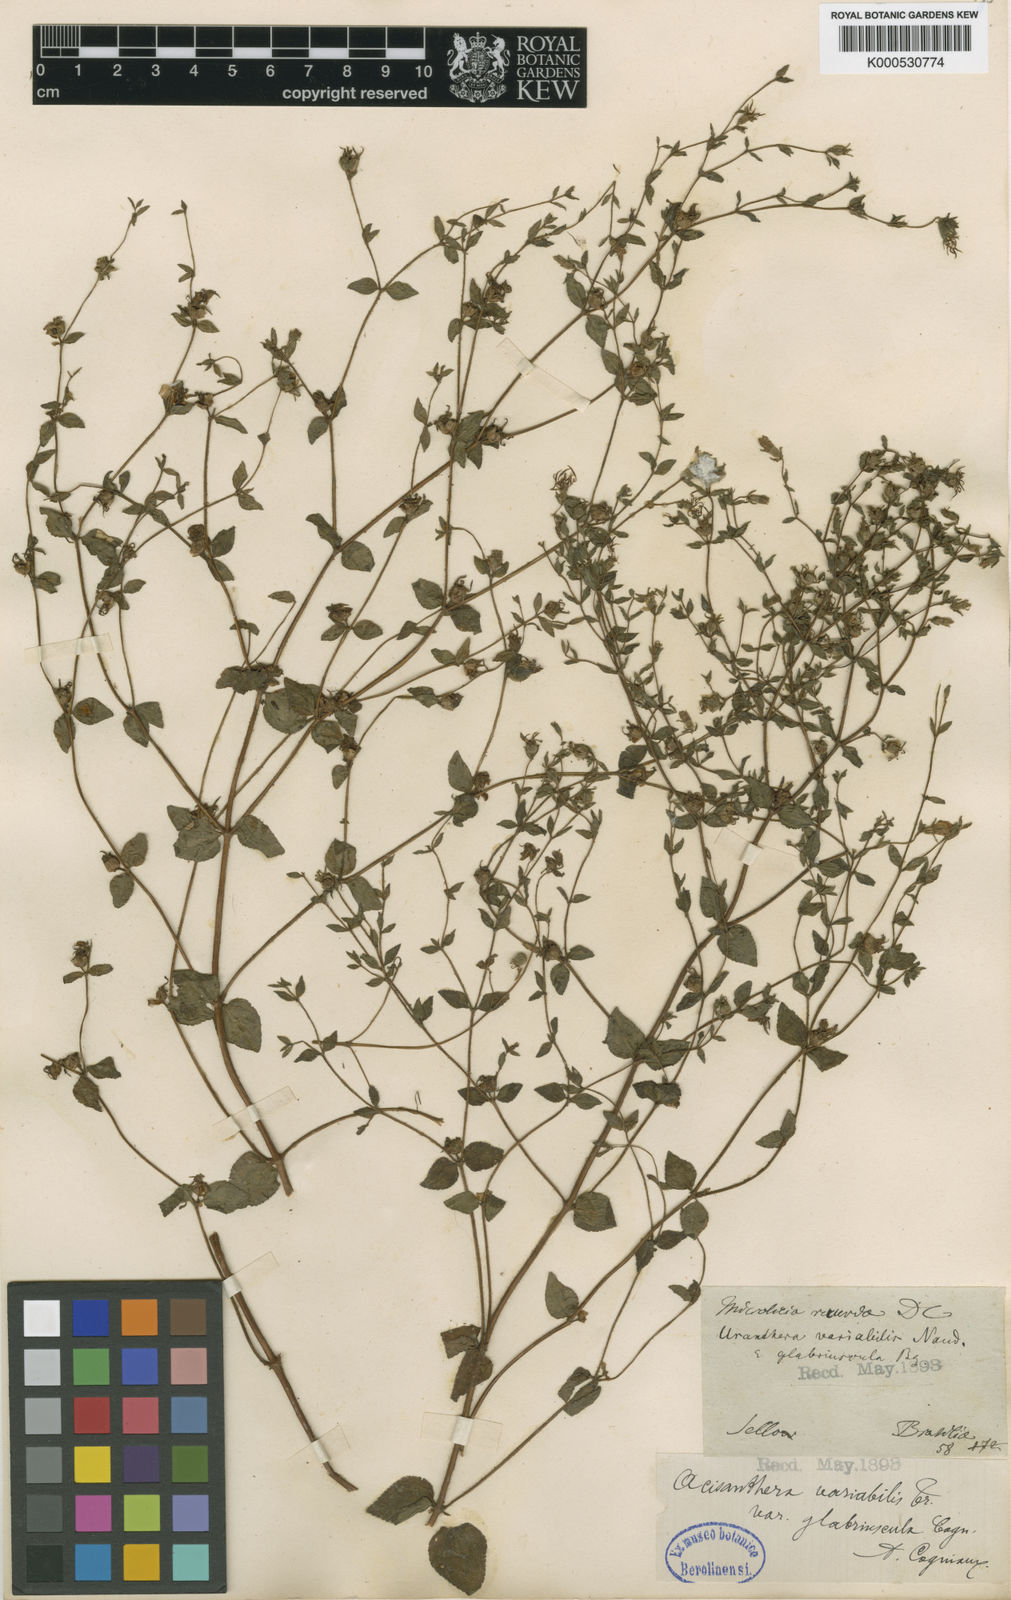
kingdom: Plantae
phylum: Tracheophyta
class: Magnoliopsida
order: Myrtales
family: Melastomataceae
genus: Acisanthera
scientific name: Acisanthera variabilis
